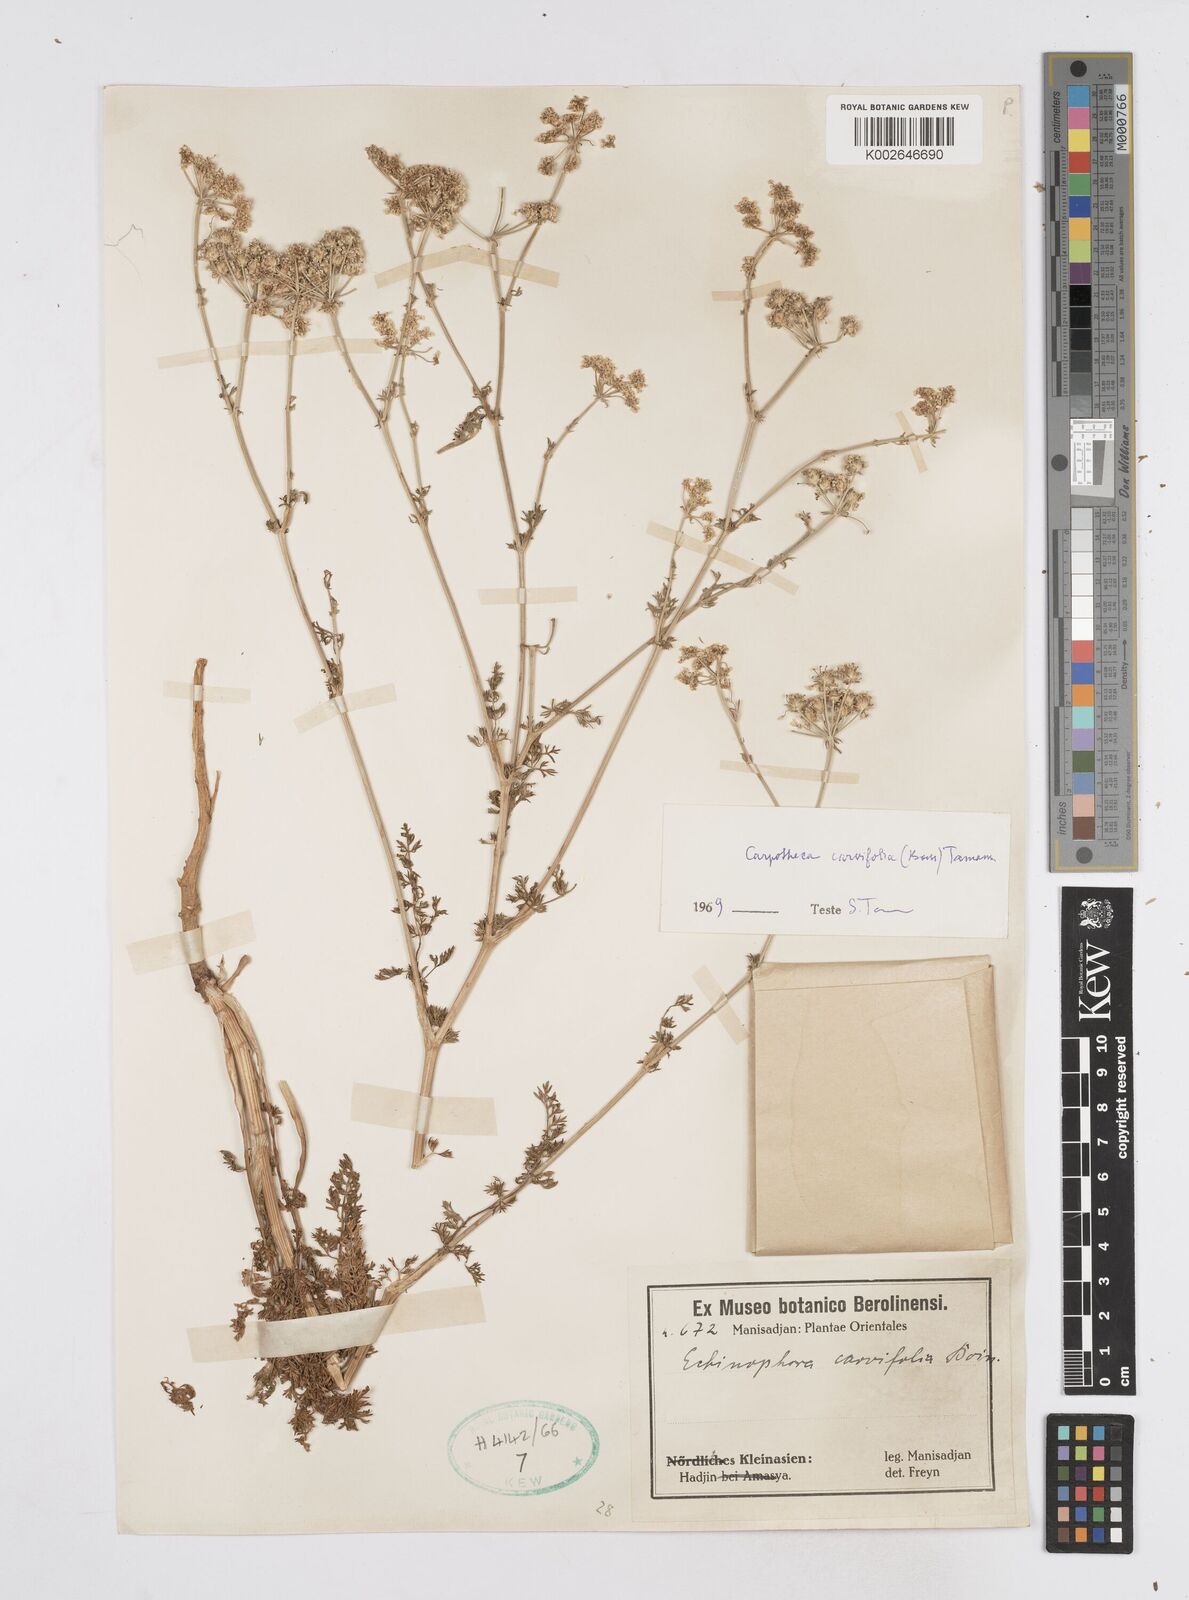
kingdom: Plantae
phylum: Tracheophyta
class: Magnoliopsida
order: Apiales
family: Apiaceae
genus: Thecocarpus
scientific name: Thecocarpus carvifolius
